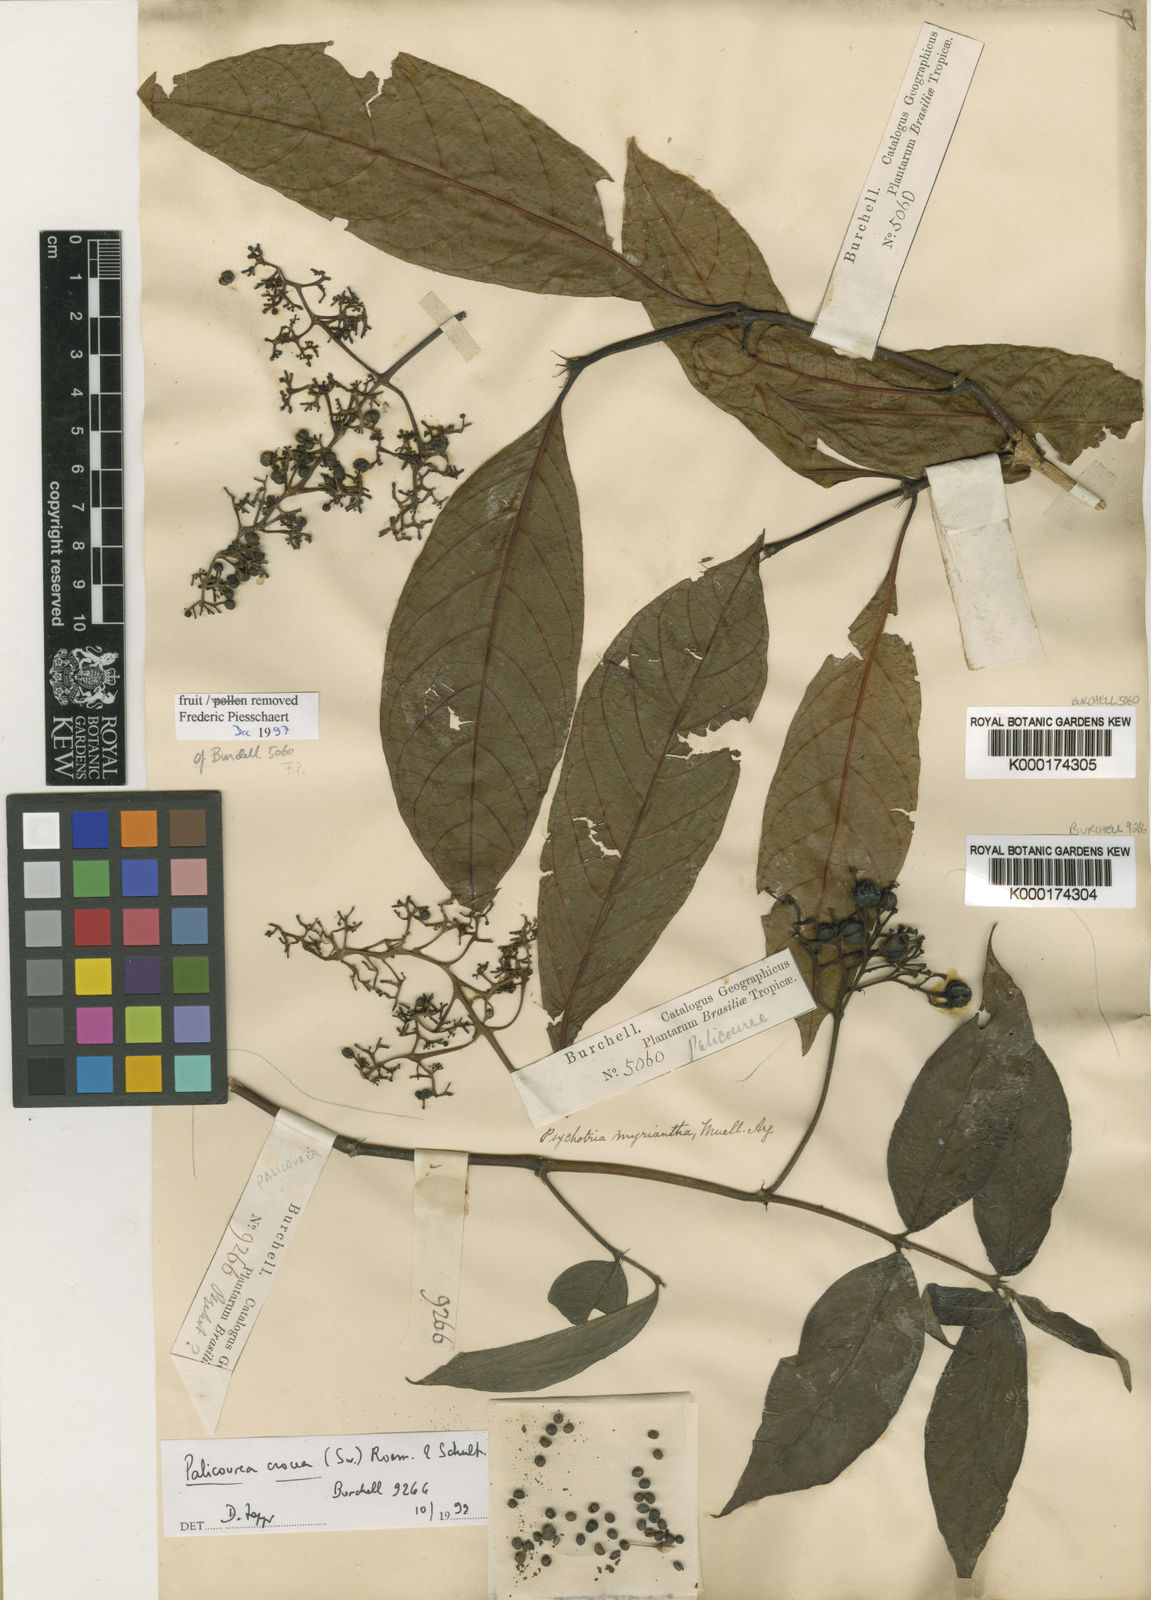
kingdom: Plantae
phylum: Tracheophyta
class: Magnoliopsida
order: Gentianales
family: Rubiaceae
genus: Psychotria
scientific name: Psychotria
